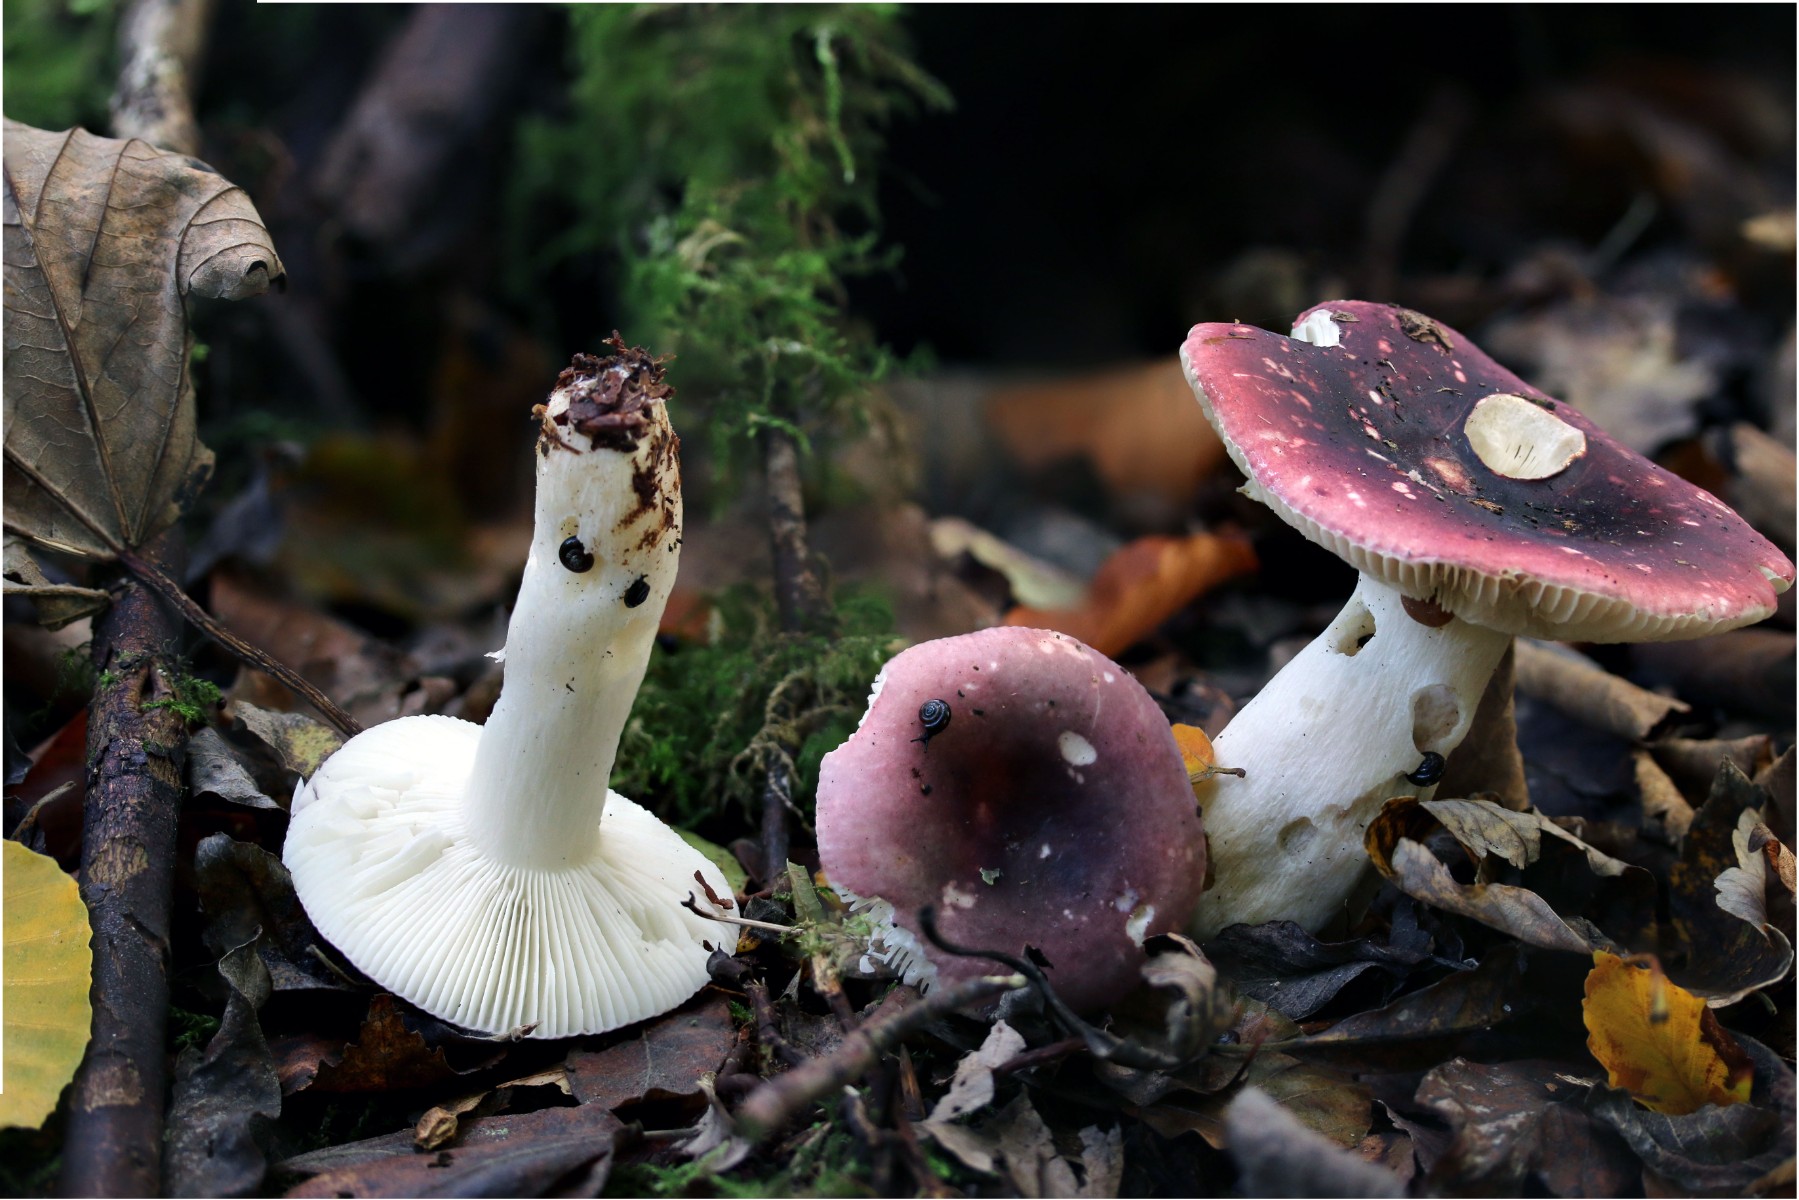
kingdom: Fungi
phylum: Basidiomycota
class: Agaricomycetes
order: Russulales
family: Russulaceae
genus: Russula
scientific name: Russula atropurpurea
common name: purpurbroget skørhat
